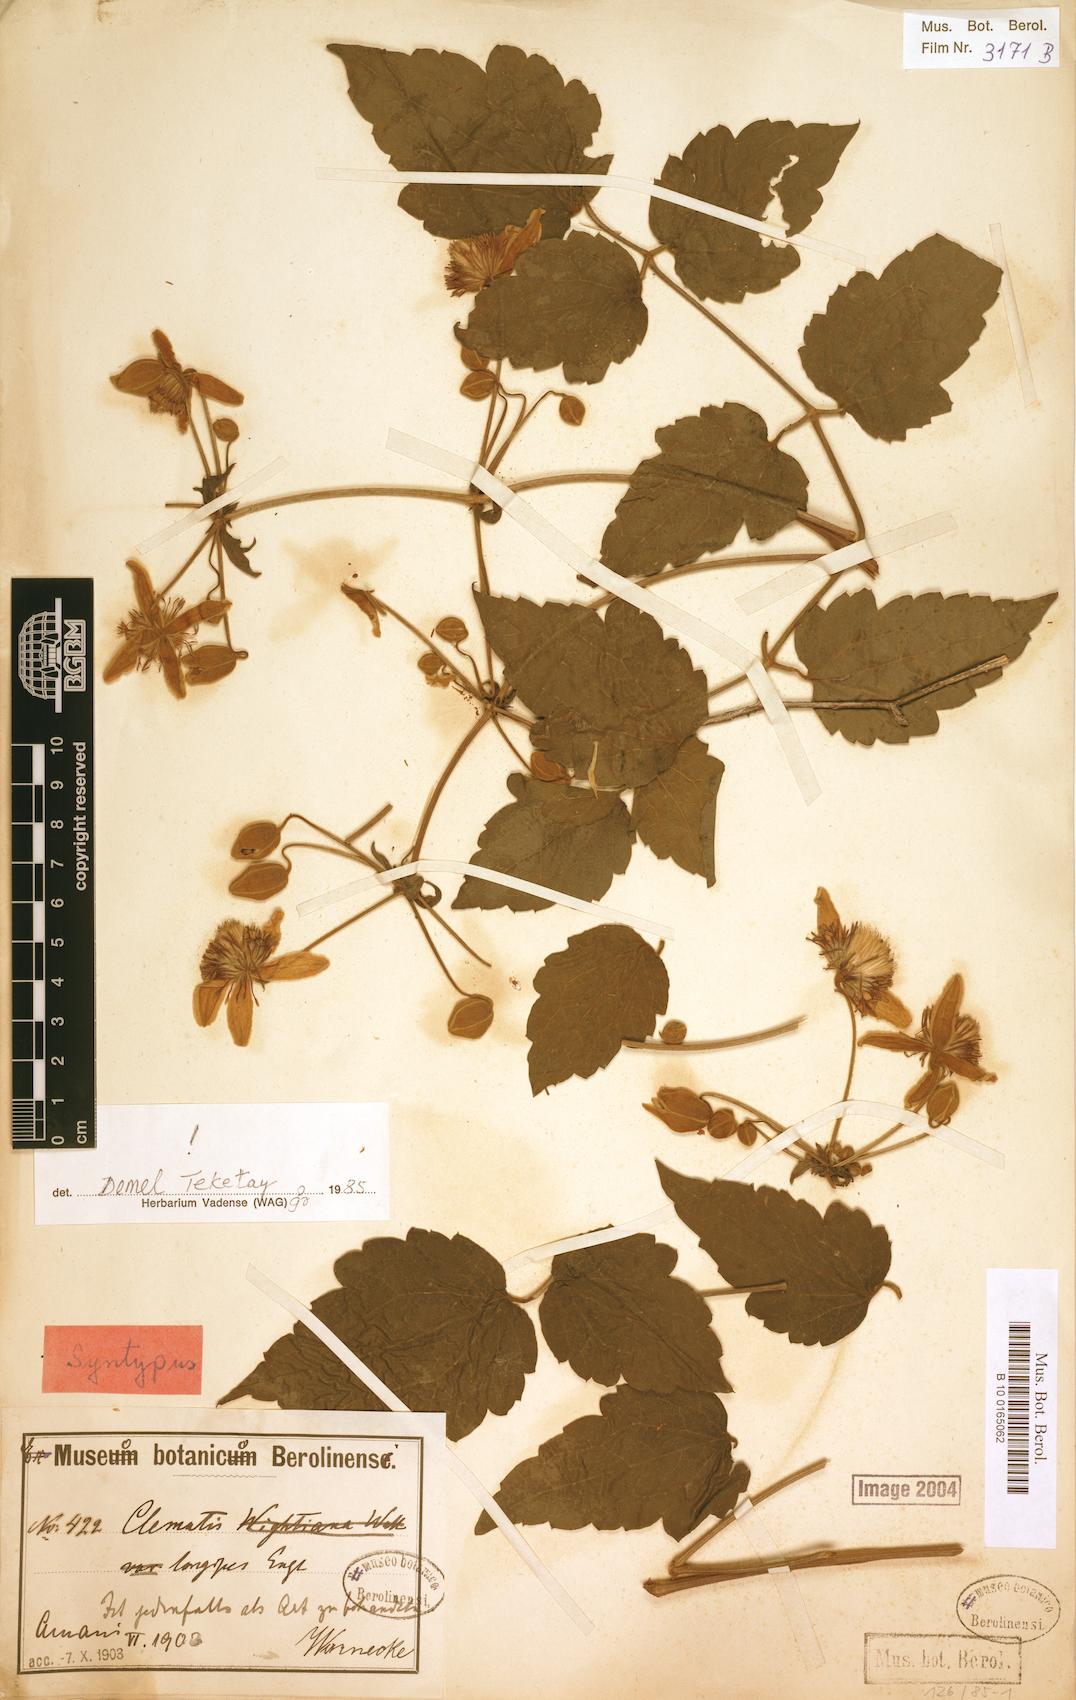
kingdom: Plantae
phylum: Tracheophyta
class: Magnoliopsida
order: Ranunculales
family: Ranunculaceae
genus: Clematis
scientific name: Clematis hirsuta
